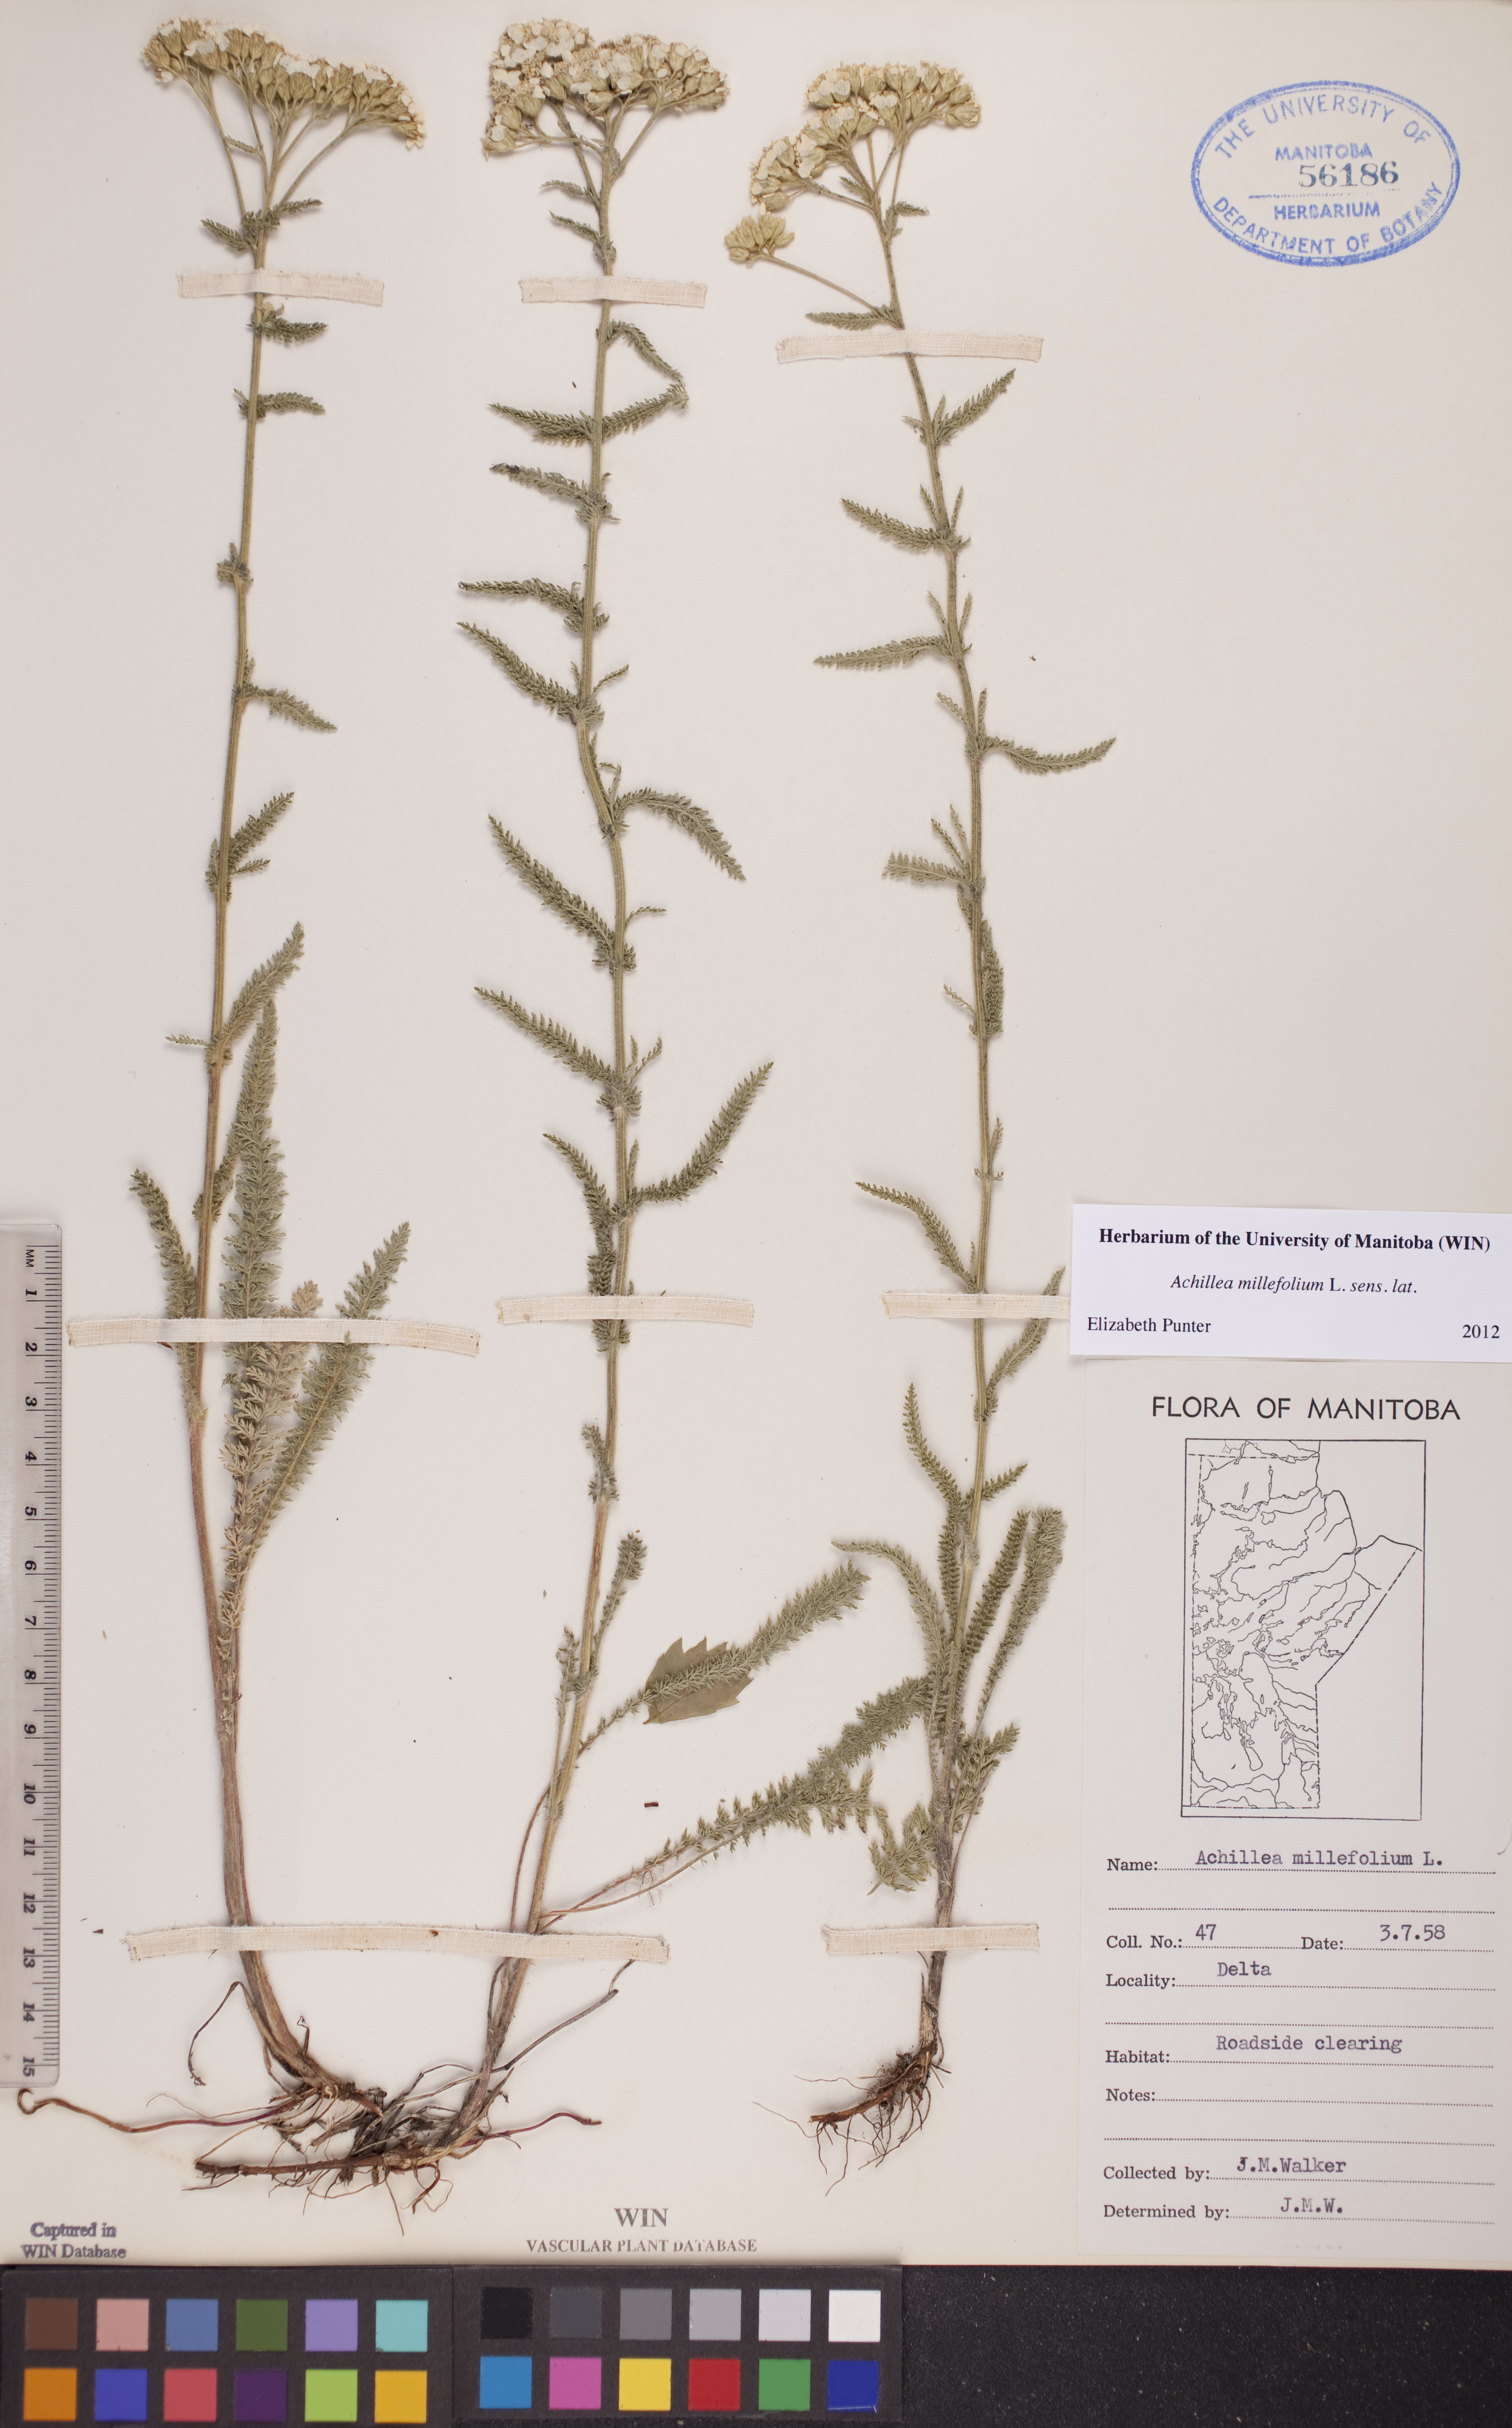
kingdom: Plantae
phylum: Tracheophyta
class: Magnoliopsida
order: Asterales
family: Asteraceae
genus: Achillea
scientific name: Achillea millefolium
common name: Yarrow
